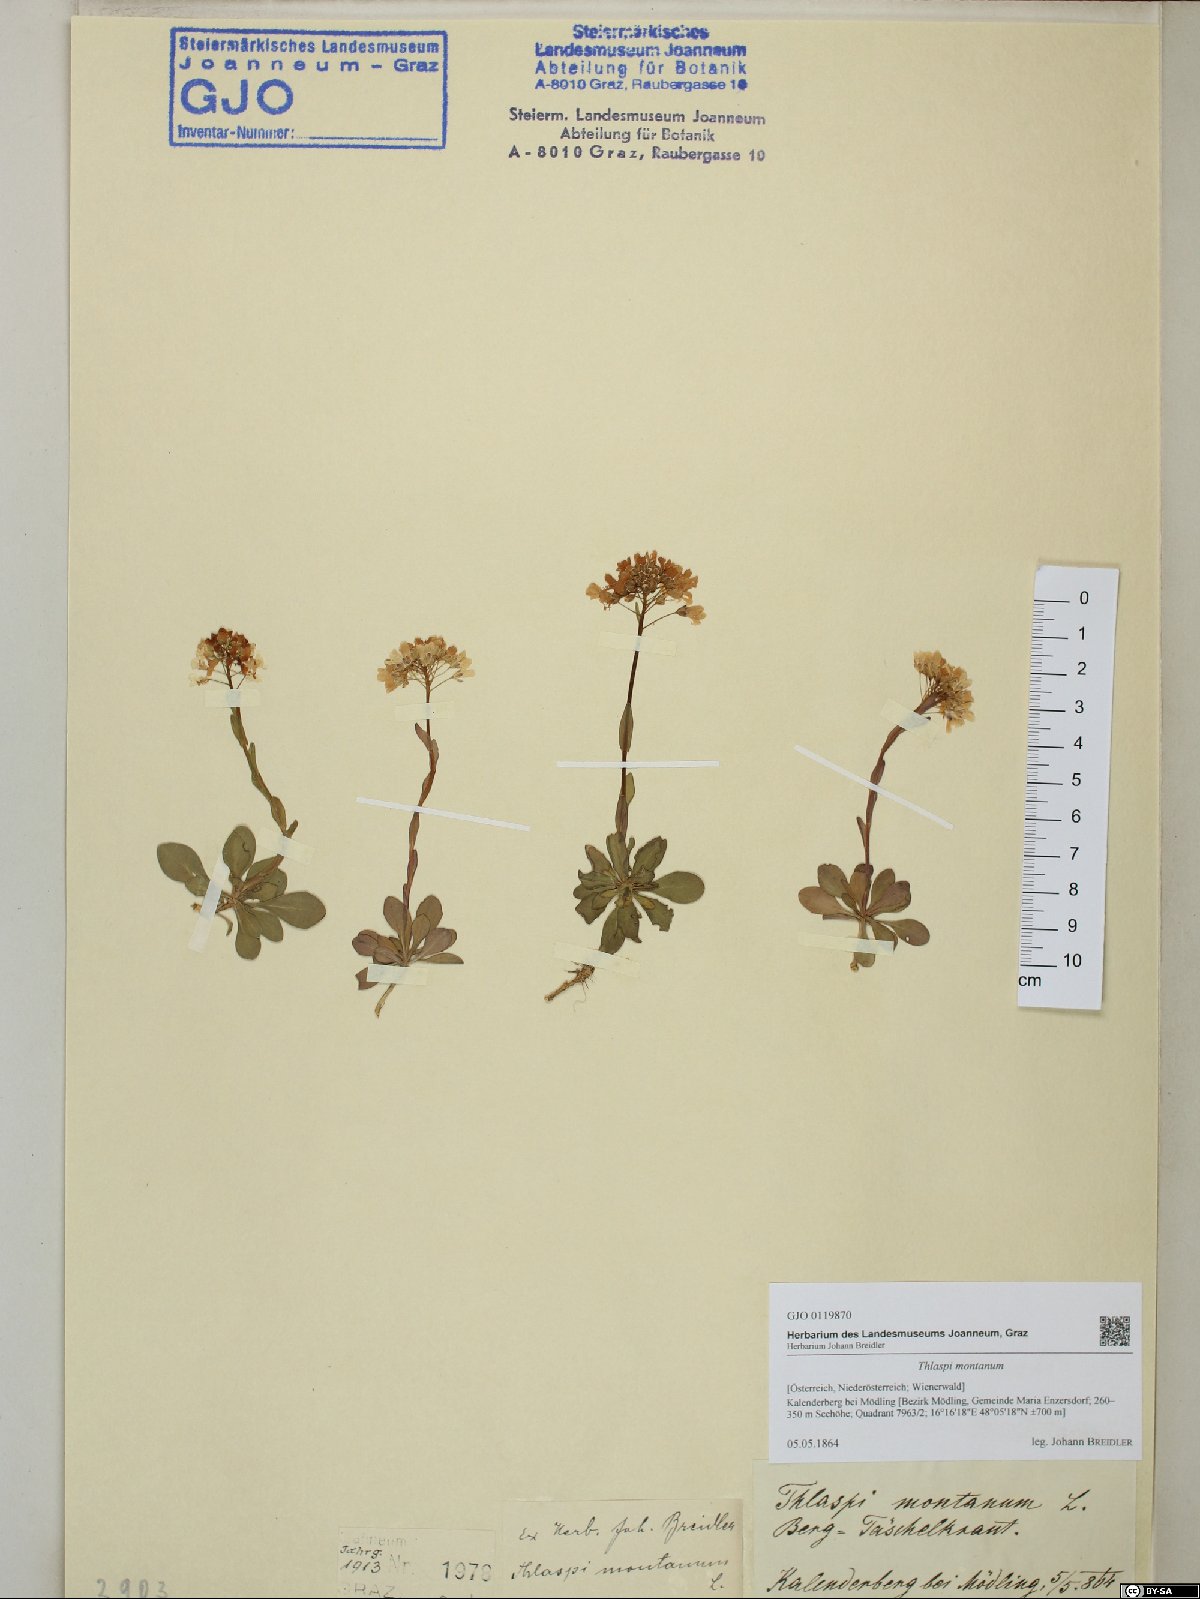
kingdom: Plantae
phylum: Tracheophyta
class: Magnoliopsida
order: Brassicales
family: Brassicaceae
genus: Noccaea
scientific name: Noccaea montana
